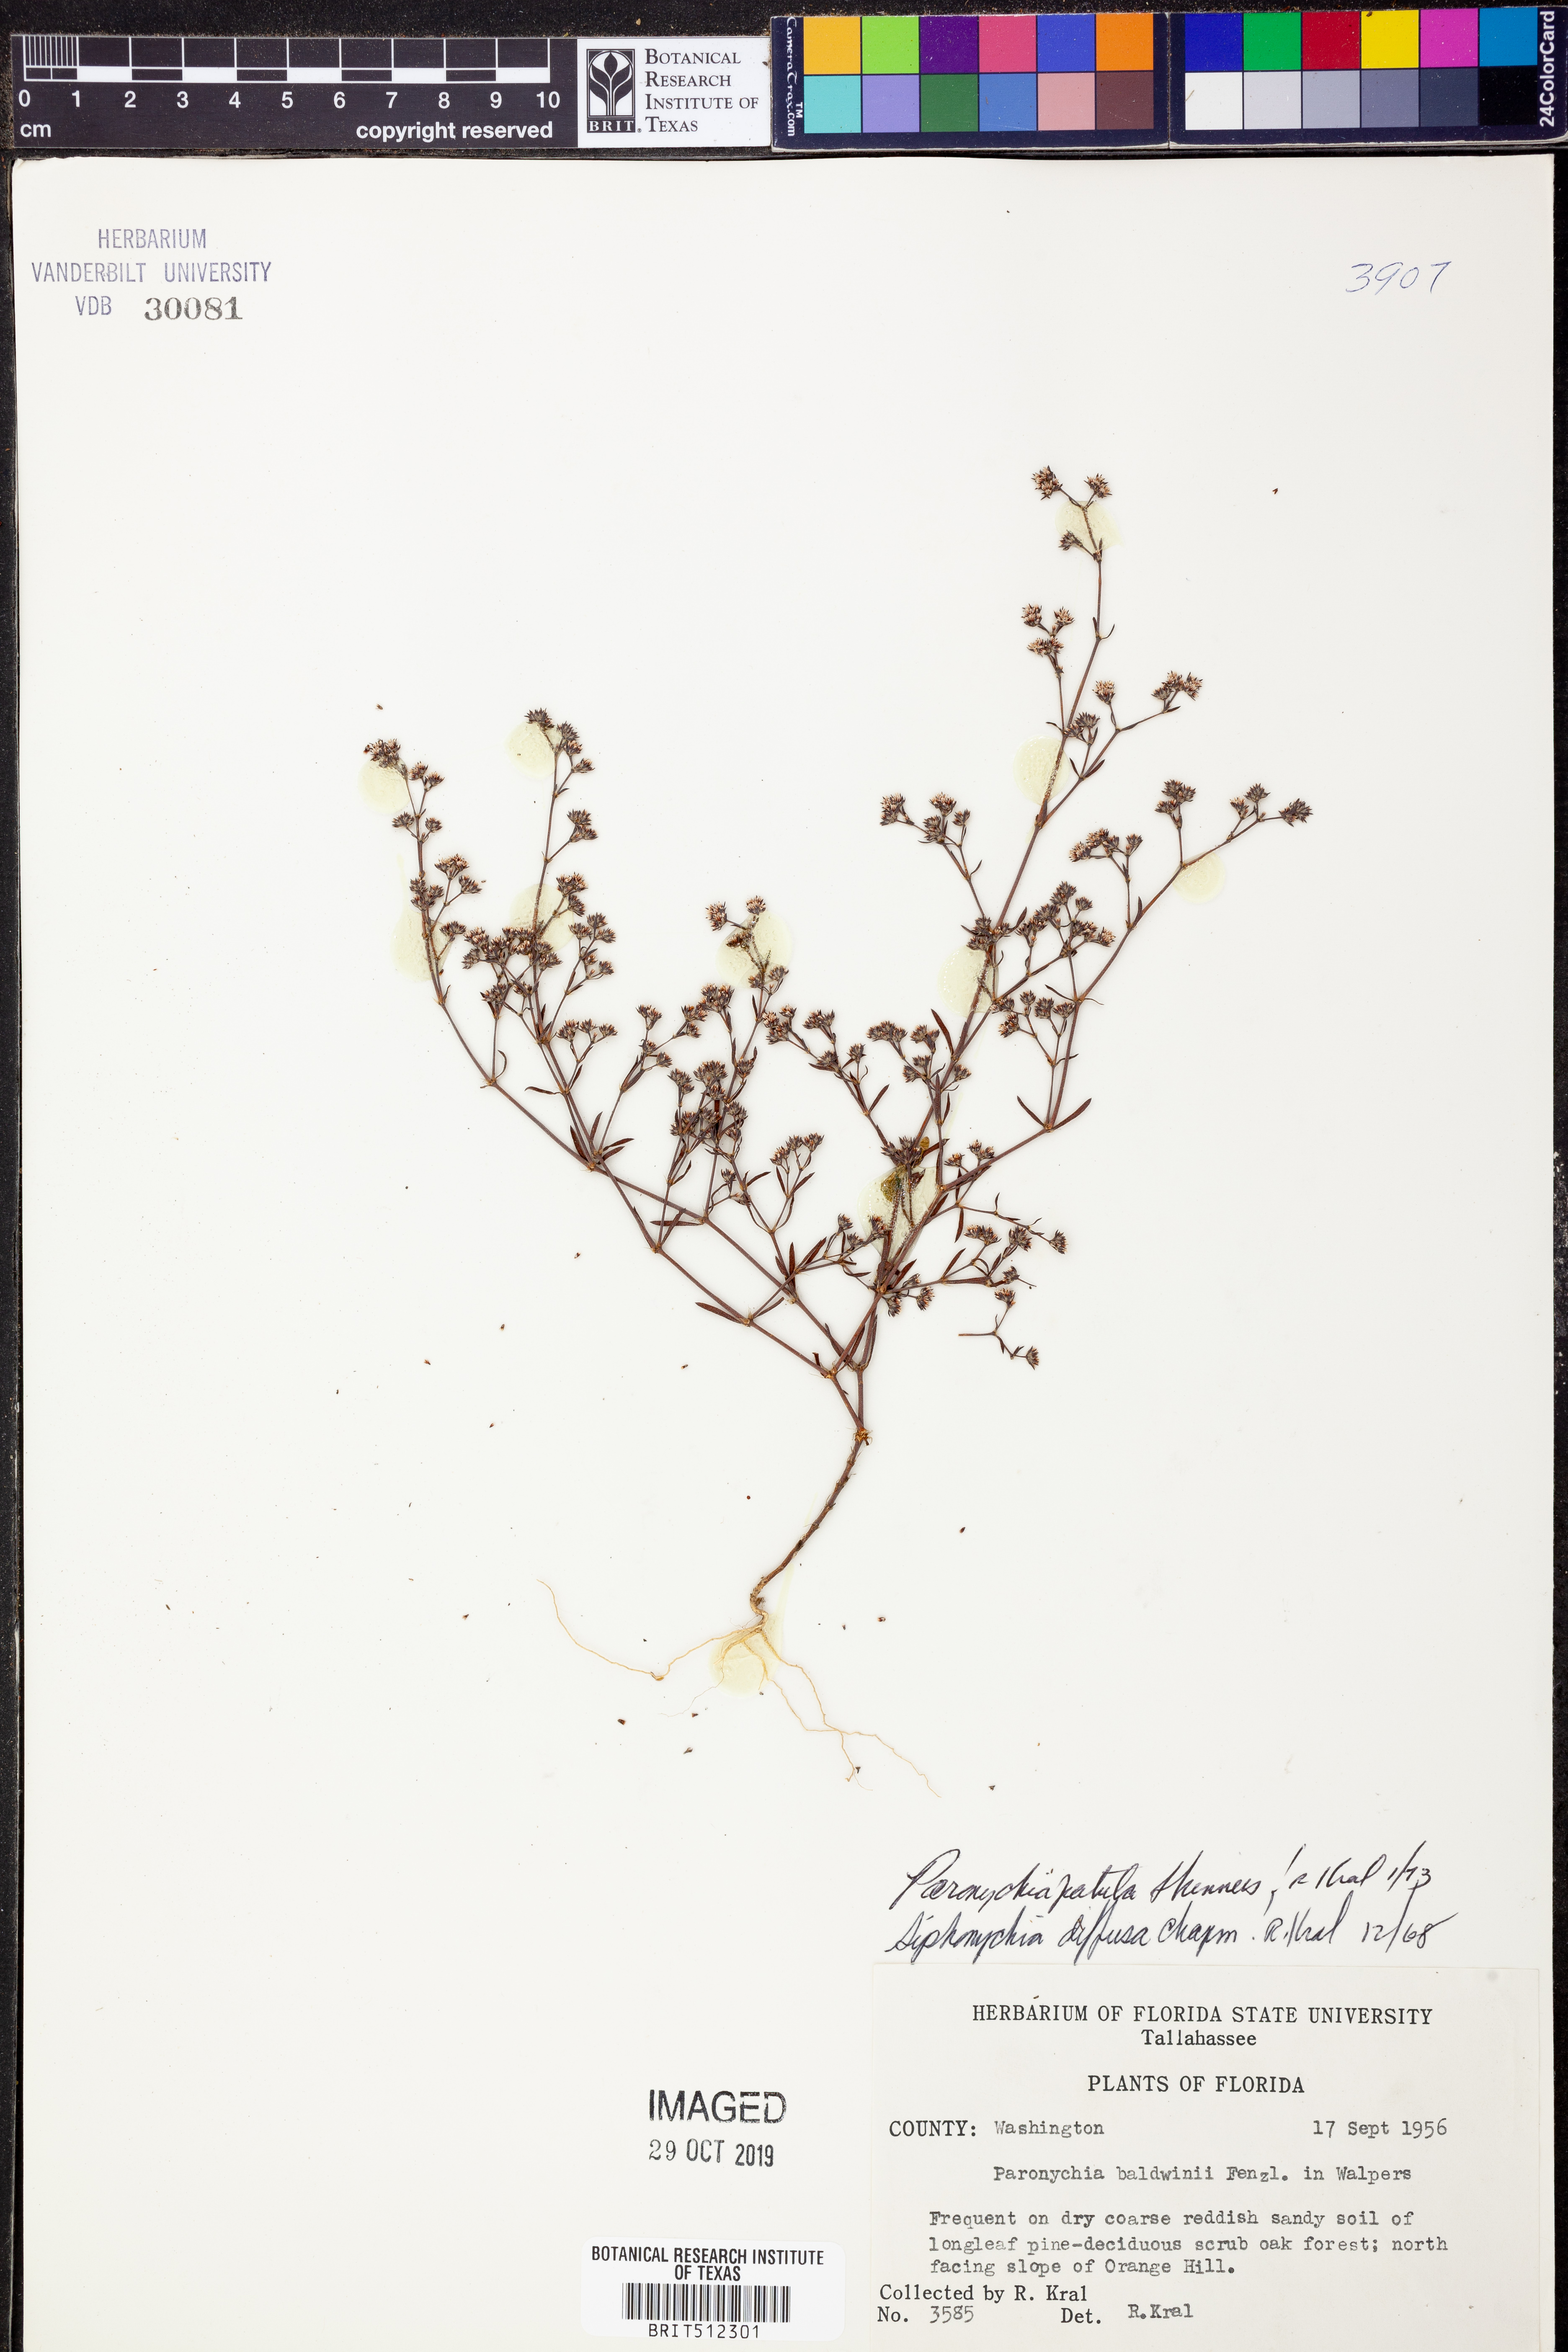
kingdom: Plantae
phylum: Tracheophyta
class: Magnoliopsida
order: Caryophyllales
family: Caryophyllaceae
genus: Paronychia
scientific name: Paronychia patula
